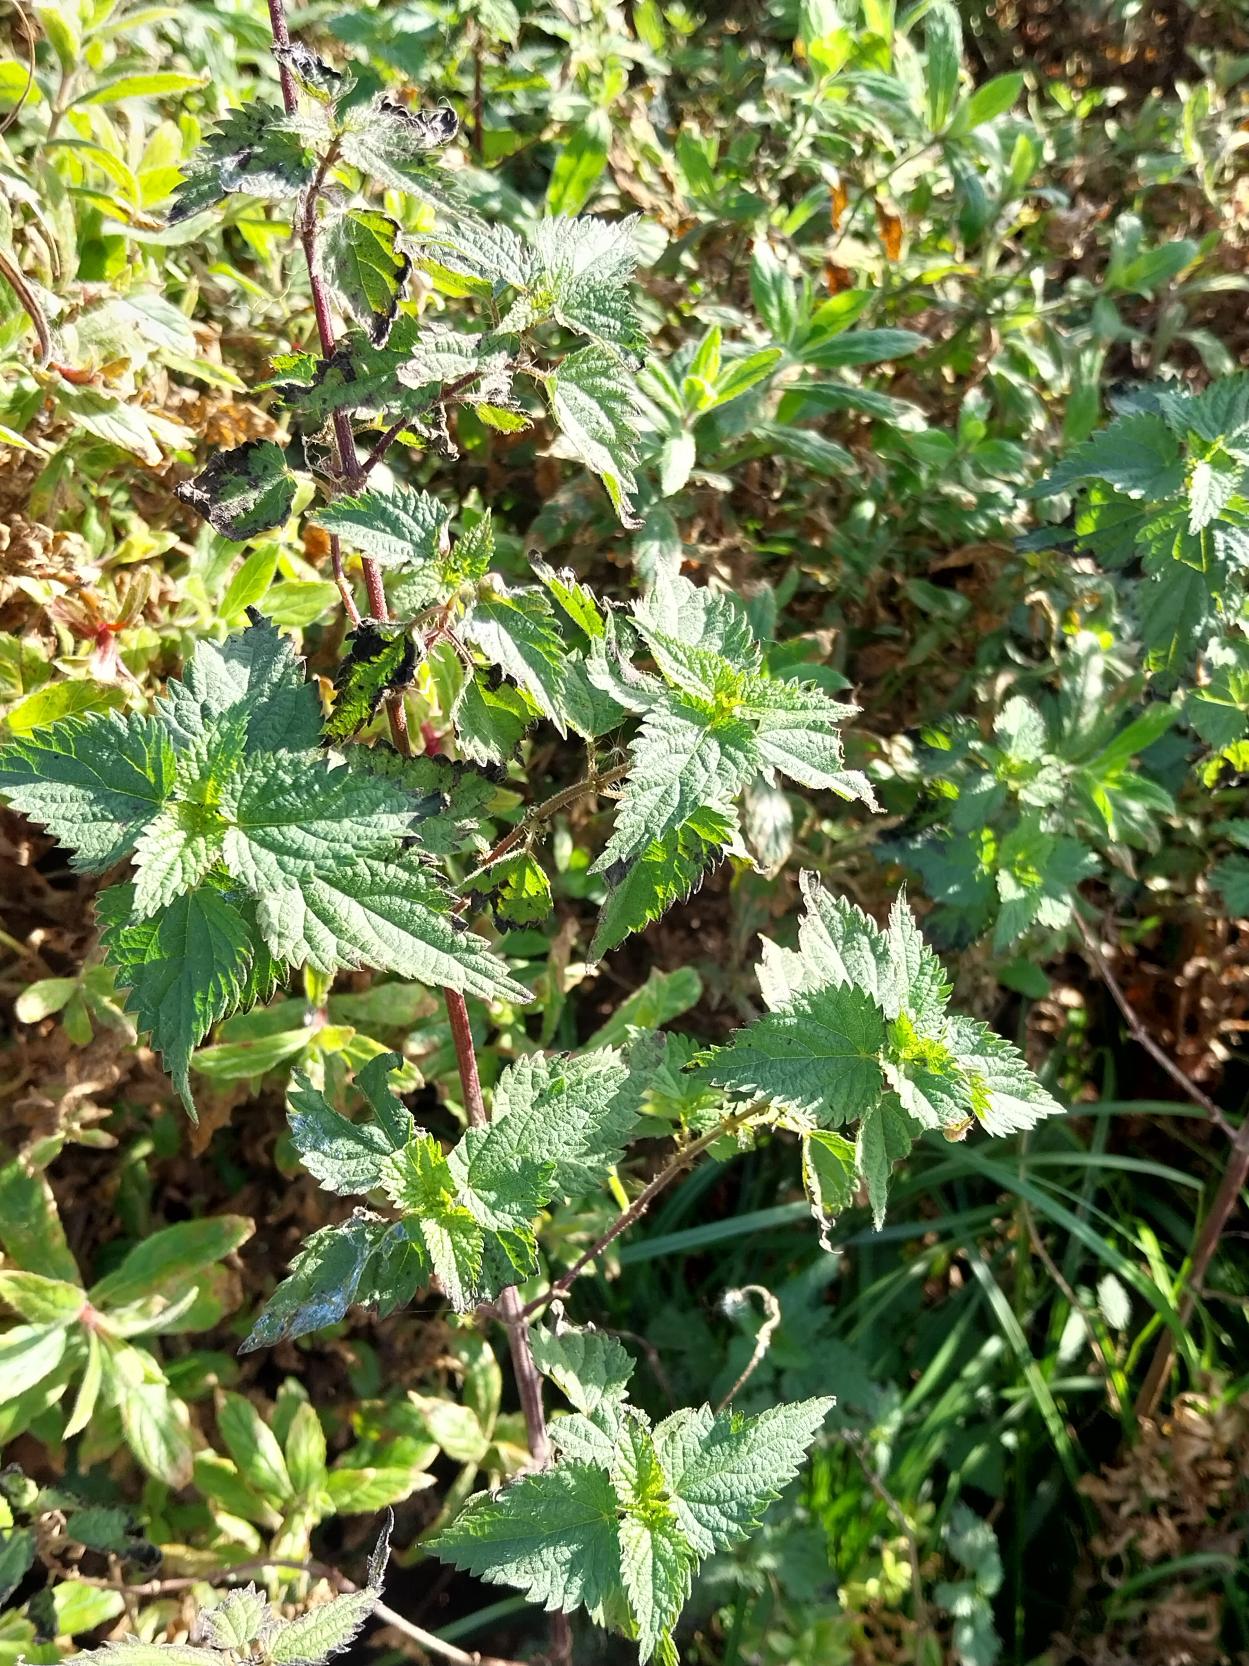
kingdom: Plantae
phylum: Tracheophyta
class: Magnoliopsida
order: Rosales
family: Urticaceae
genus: Urtica
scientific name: Urtica dioica
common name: Stor nælde
